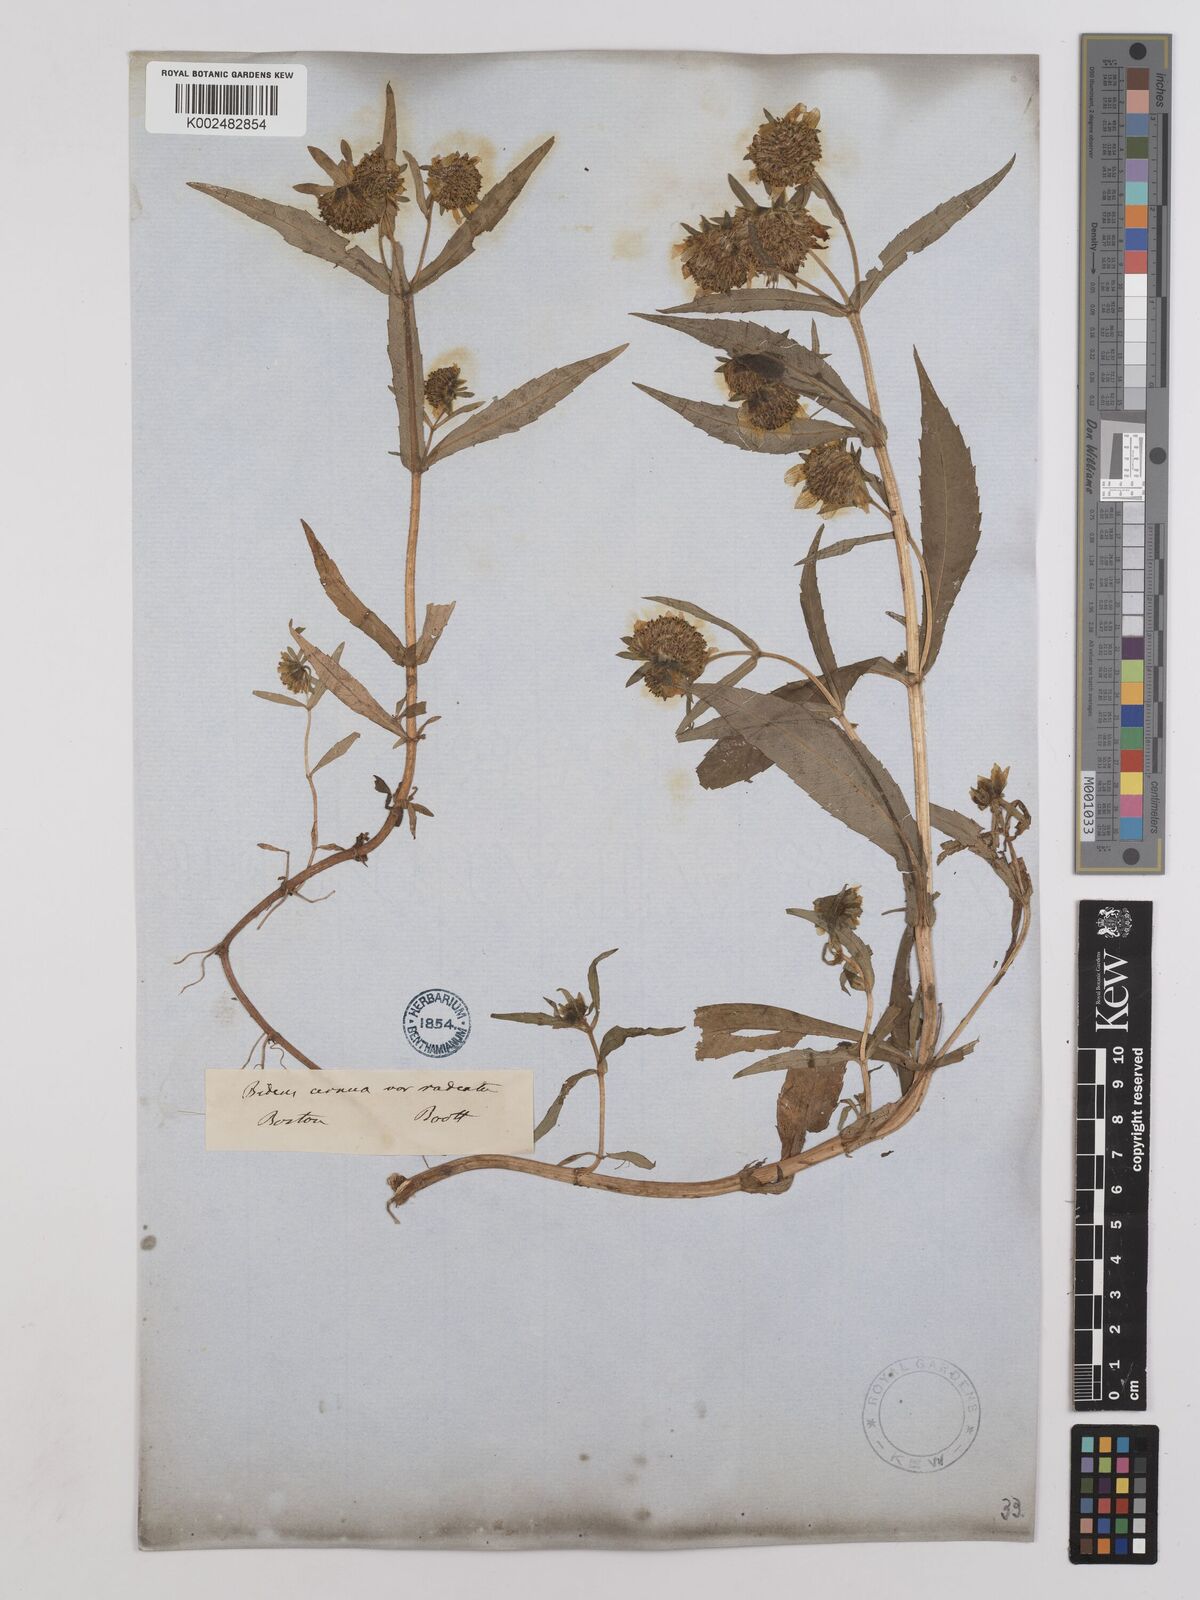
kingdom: Plantae
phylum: Tracheophyta
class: Magnoliopsida
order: Asterales
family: Asteraceae
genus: Bidens
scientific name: Bidens
